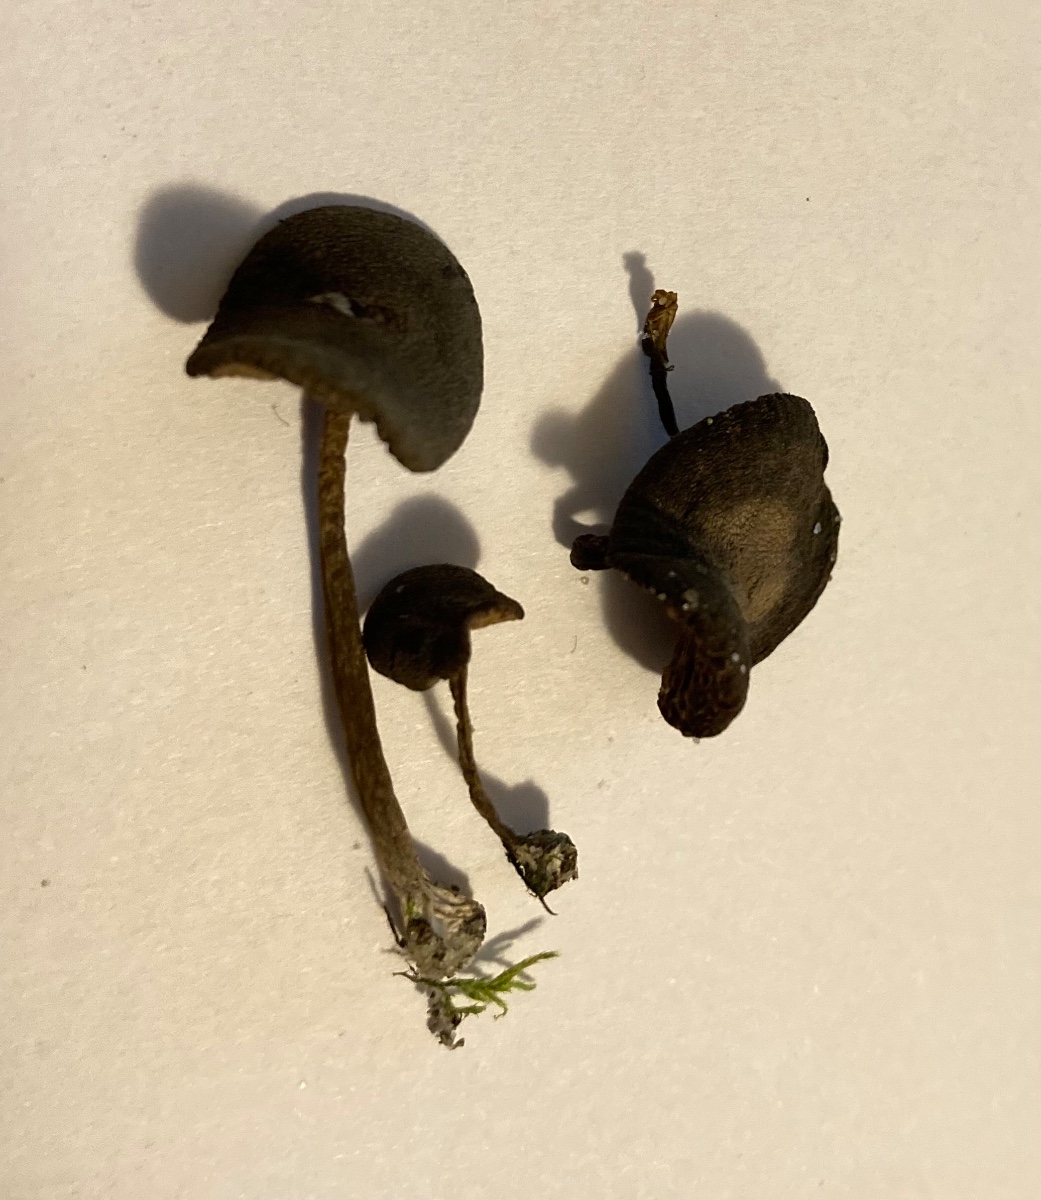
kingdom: Fungi
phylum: Basidiomycota
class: Agaricomycetes
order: Agaricales
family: Entolomataceae
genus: Entoloma
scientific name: Entoloma vindobonense
